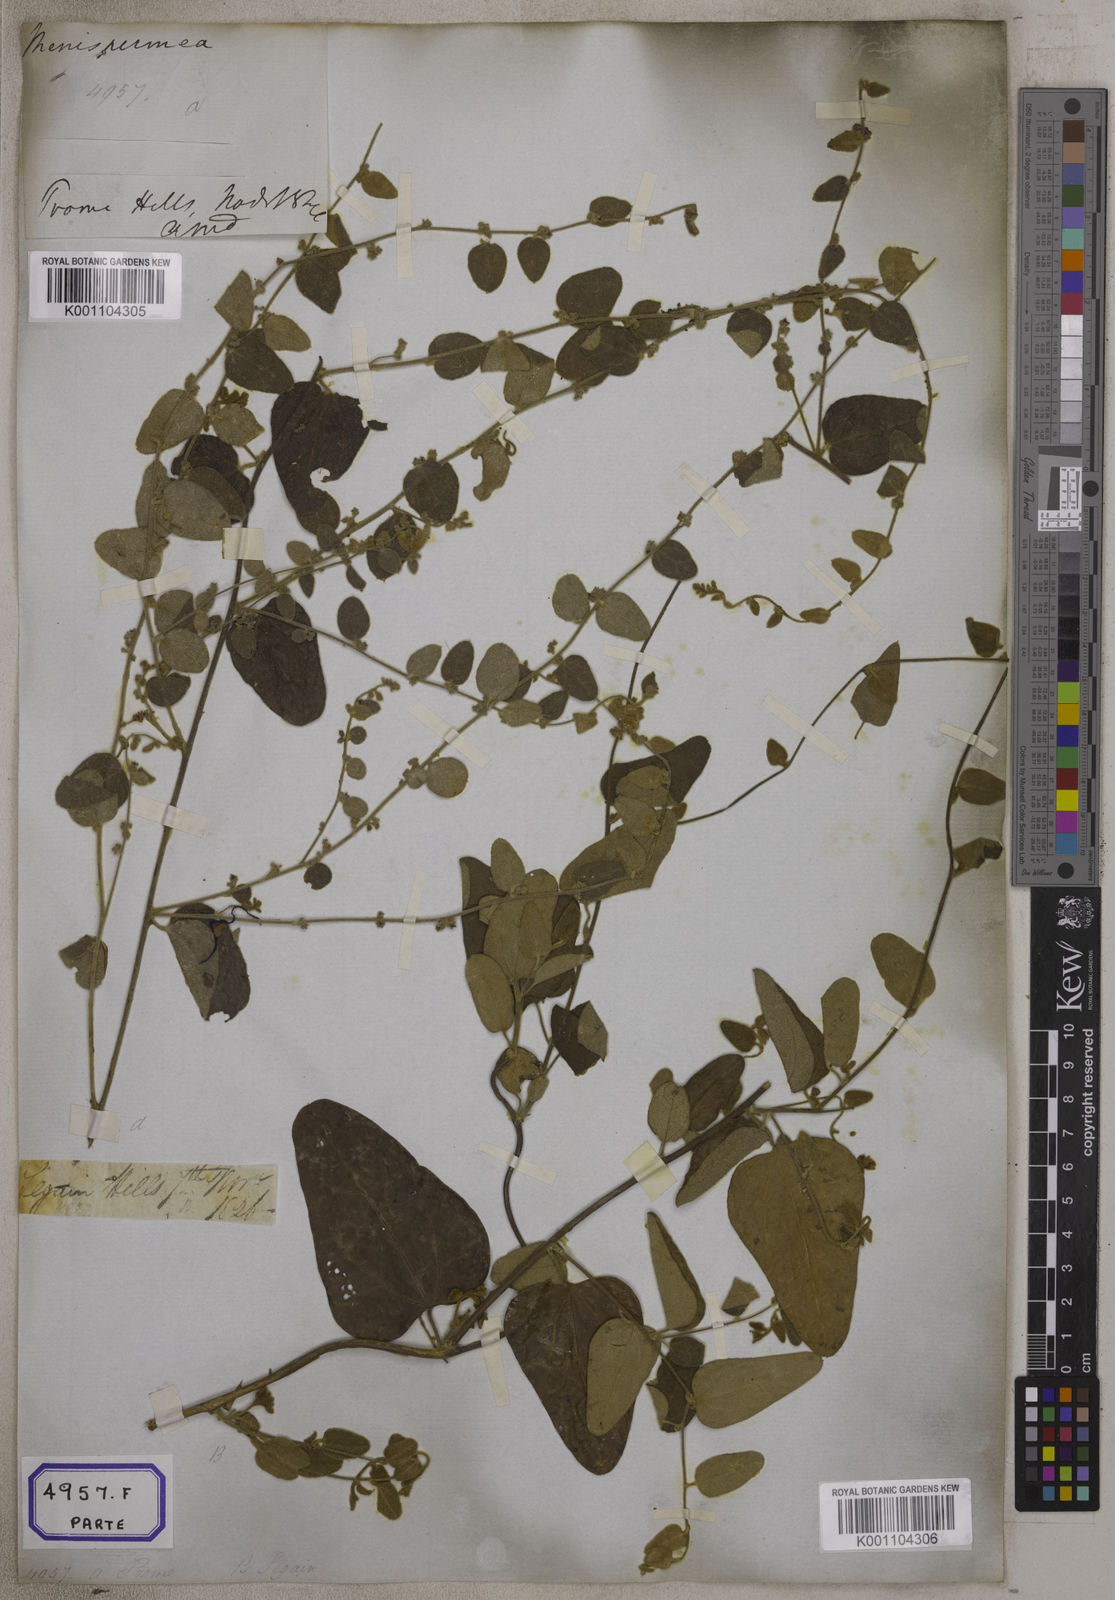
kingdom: Plantae
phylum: Tracheophyta
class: Magnoliopsida
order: Ranunculales
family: Menispermaceae
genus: Cocculus
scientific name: Cocculus hirsutus
